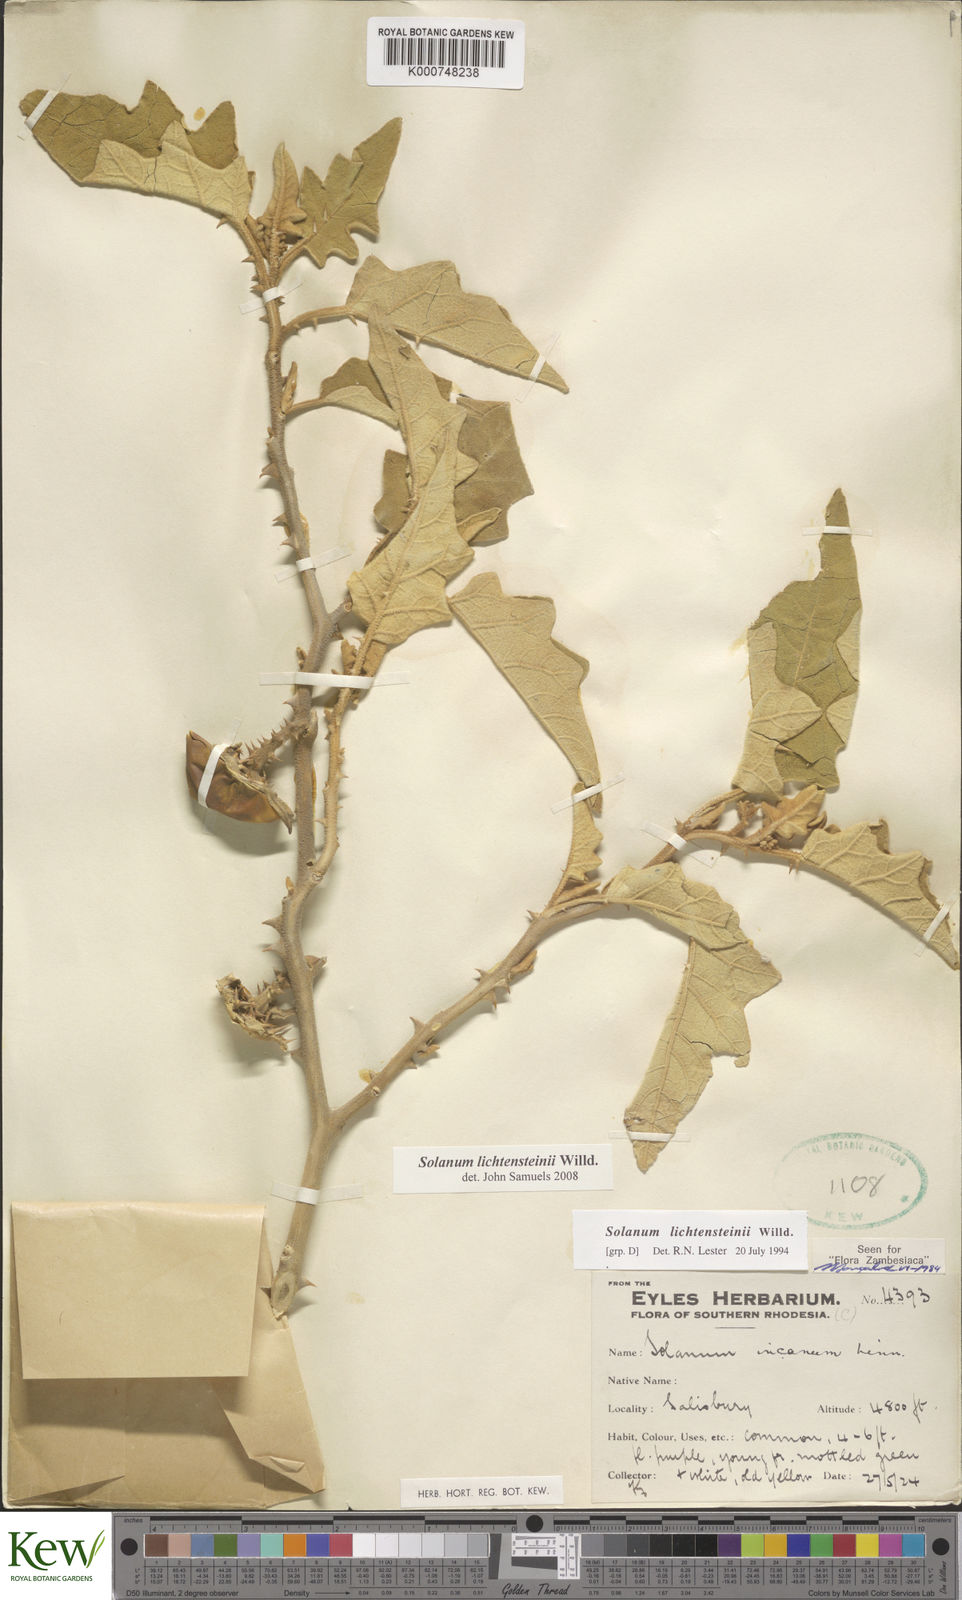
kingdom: Plantae
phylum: Tracheophyta
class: Magnoliopsida
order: Solanales
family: Solanaceae
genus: Solanum
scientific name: Solanum lichtensteinii
